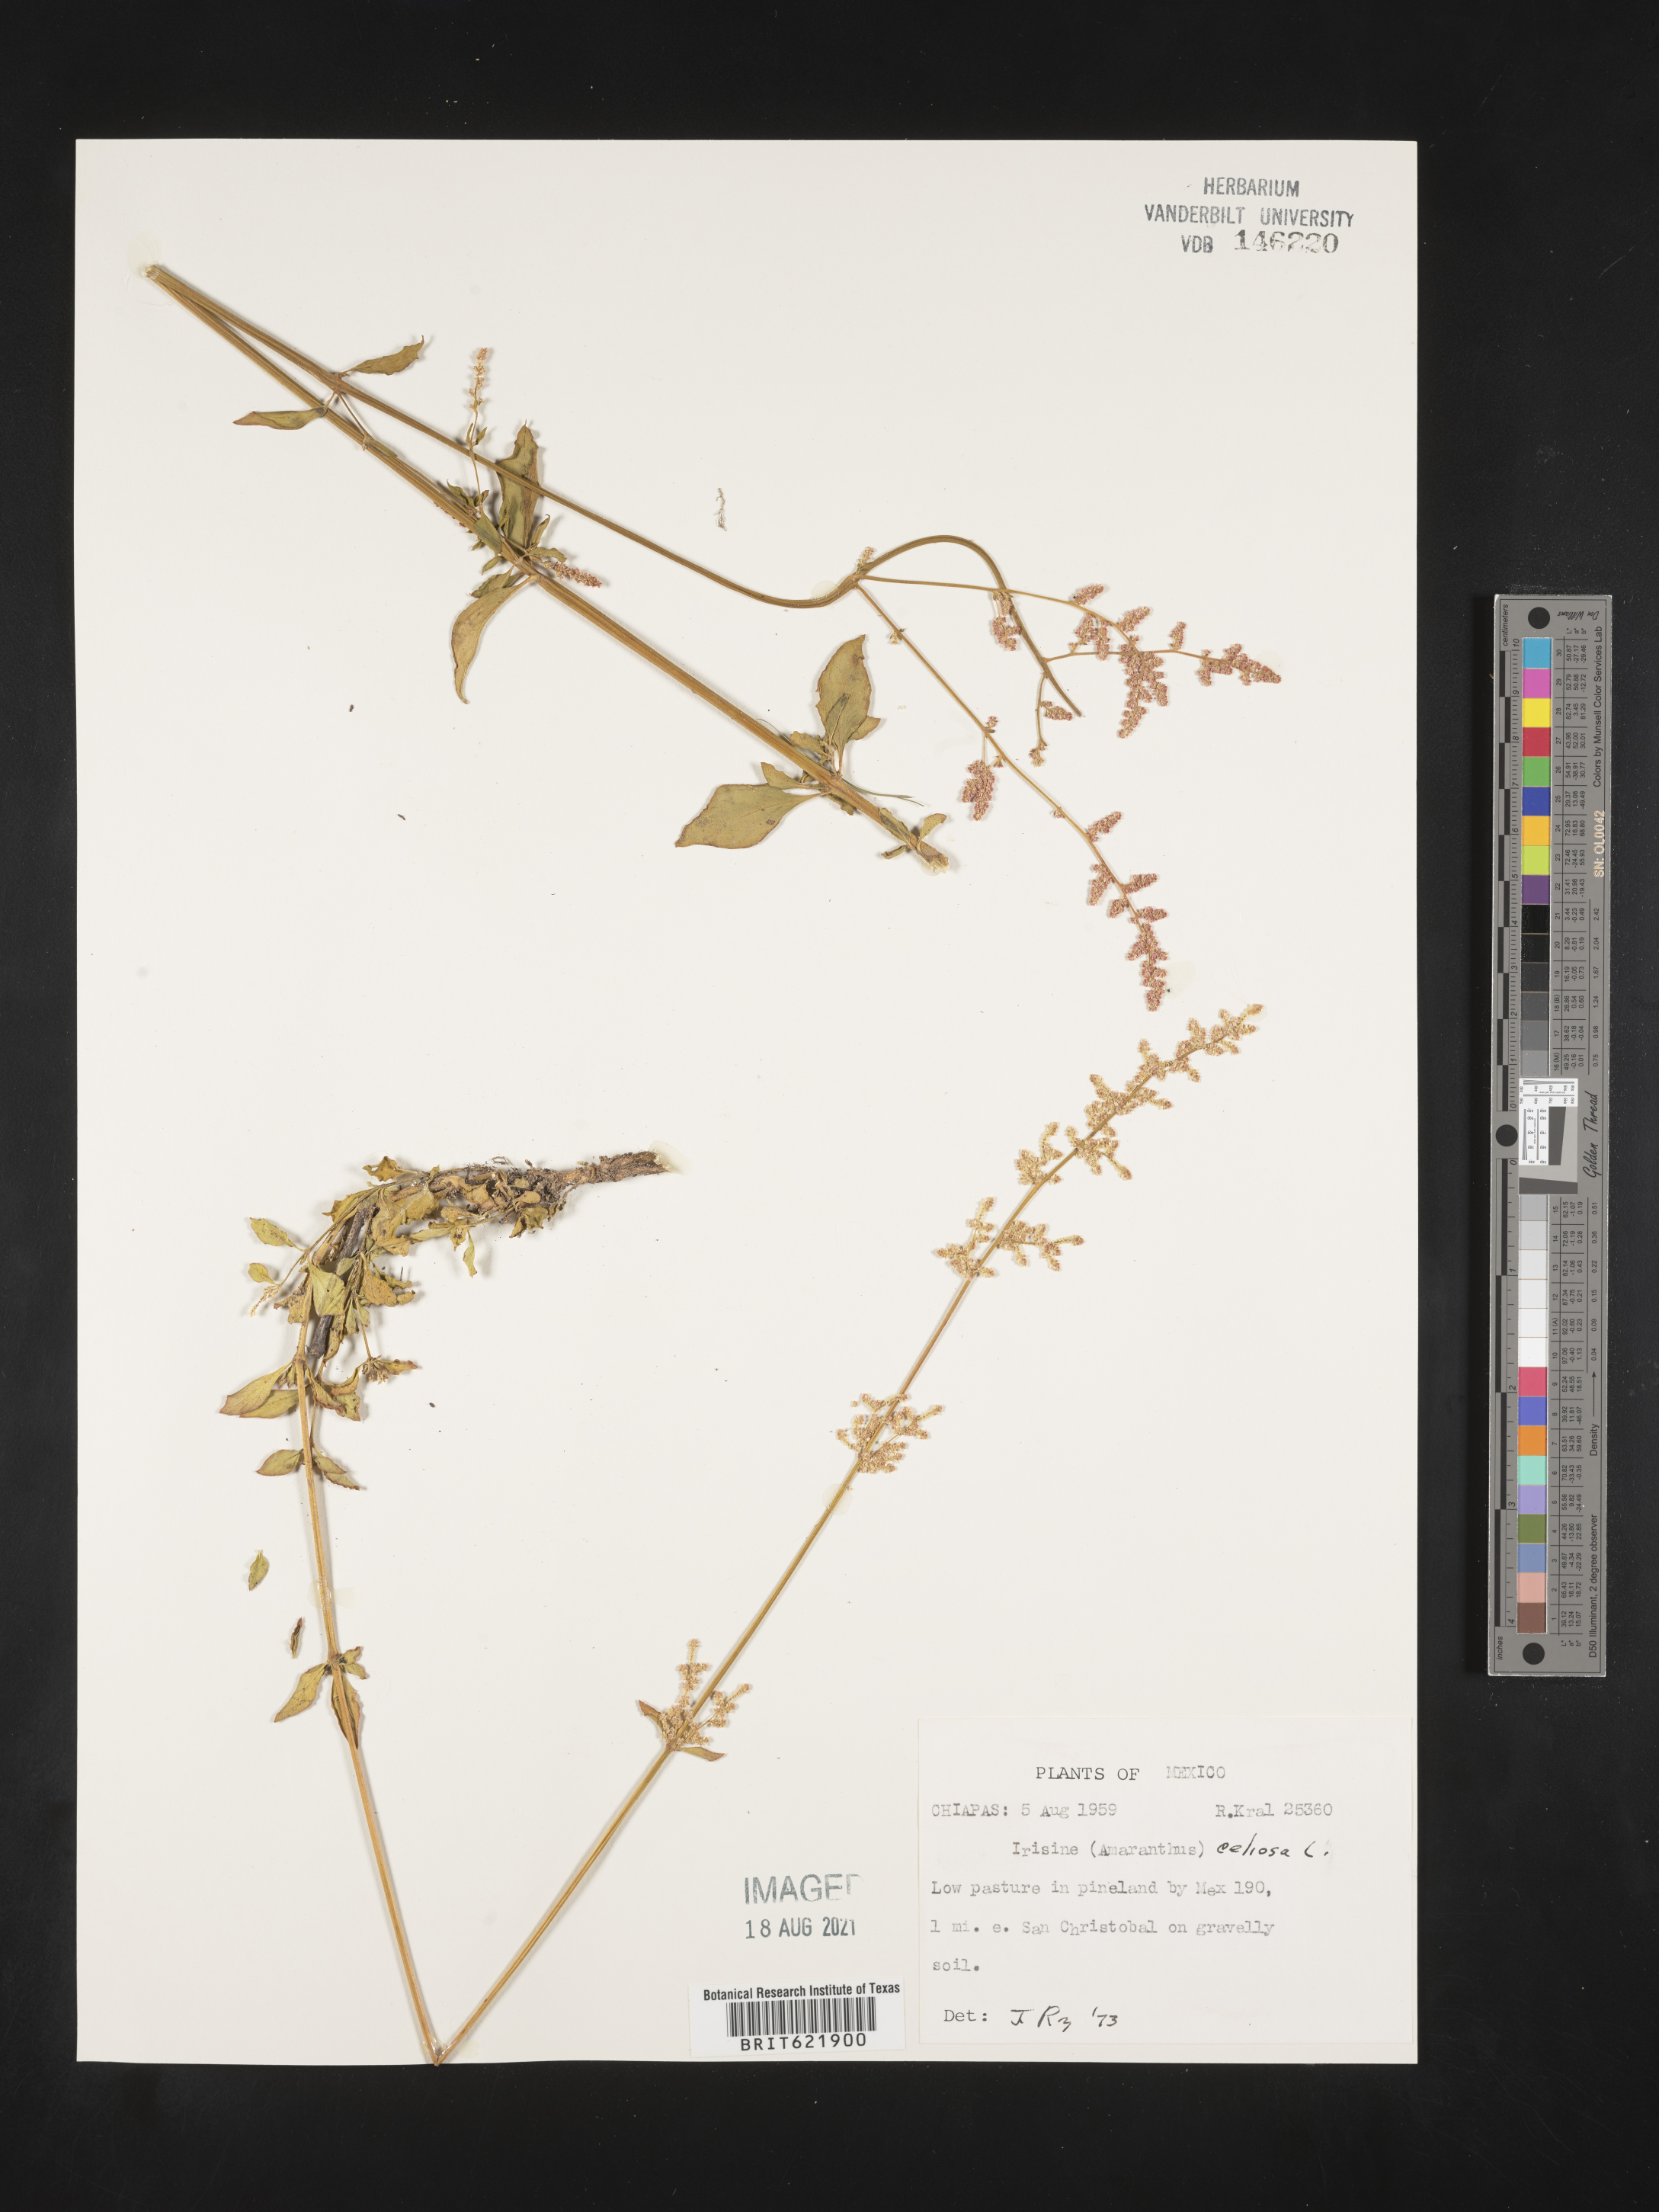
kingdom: Plantae
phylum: Tracheophyta
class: Magnoliopsida
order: Caryophyllales
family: Amaranthaceae
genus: Iresine
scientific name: Iresine
